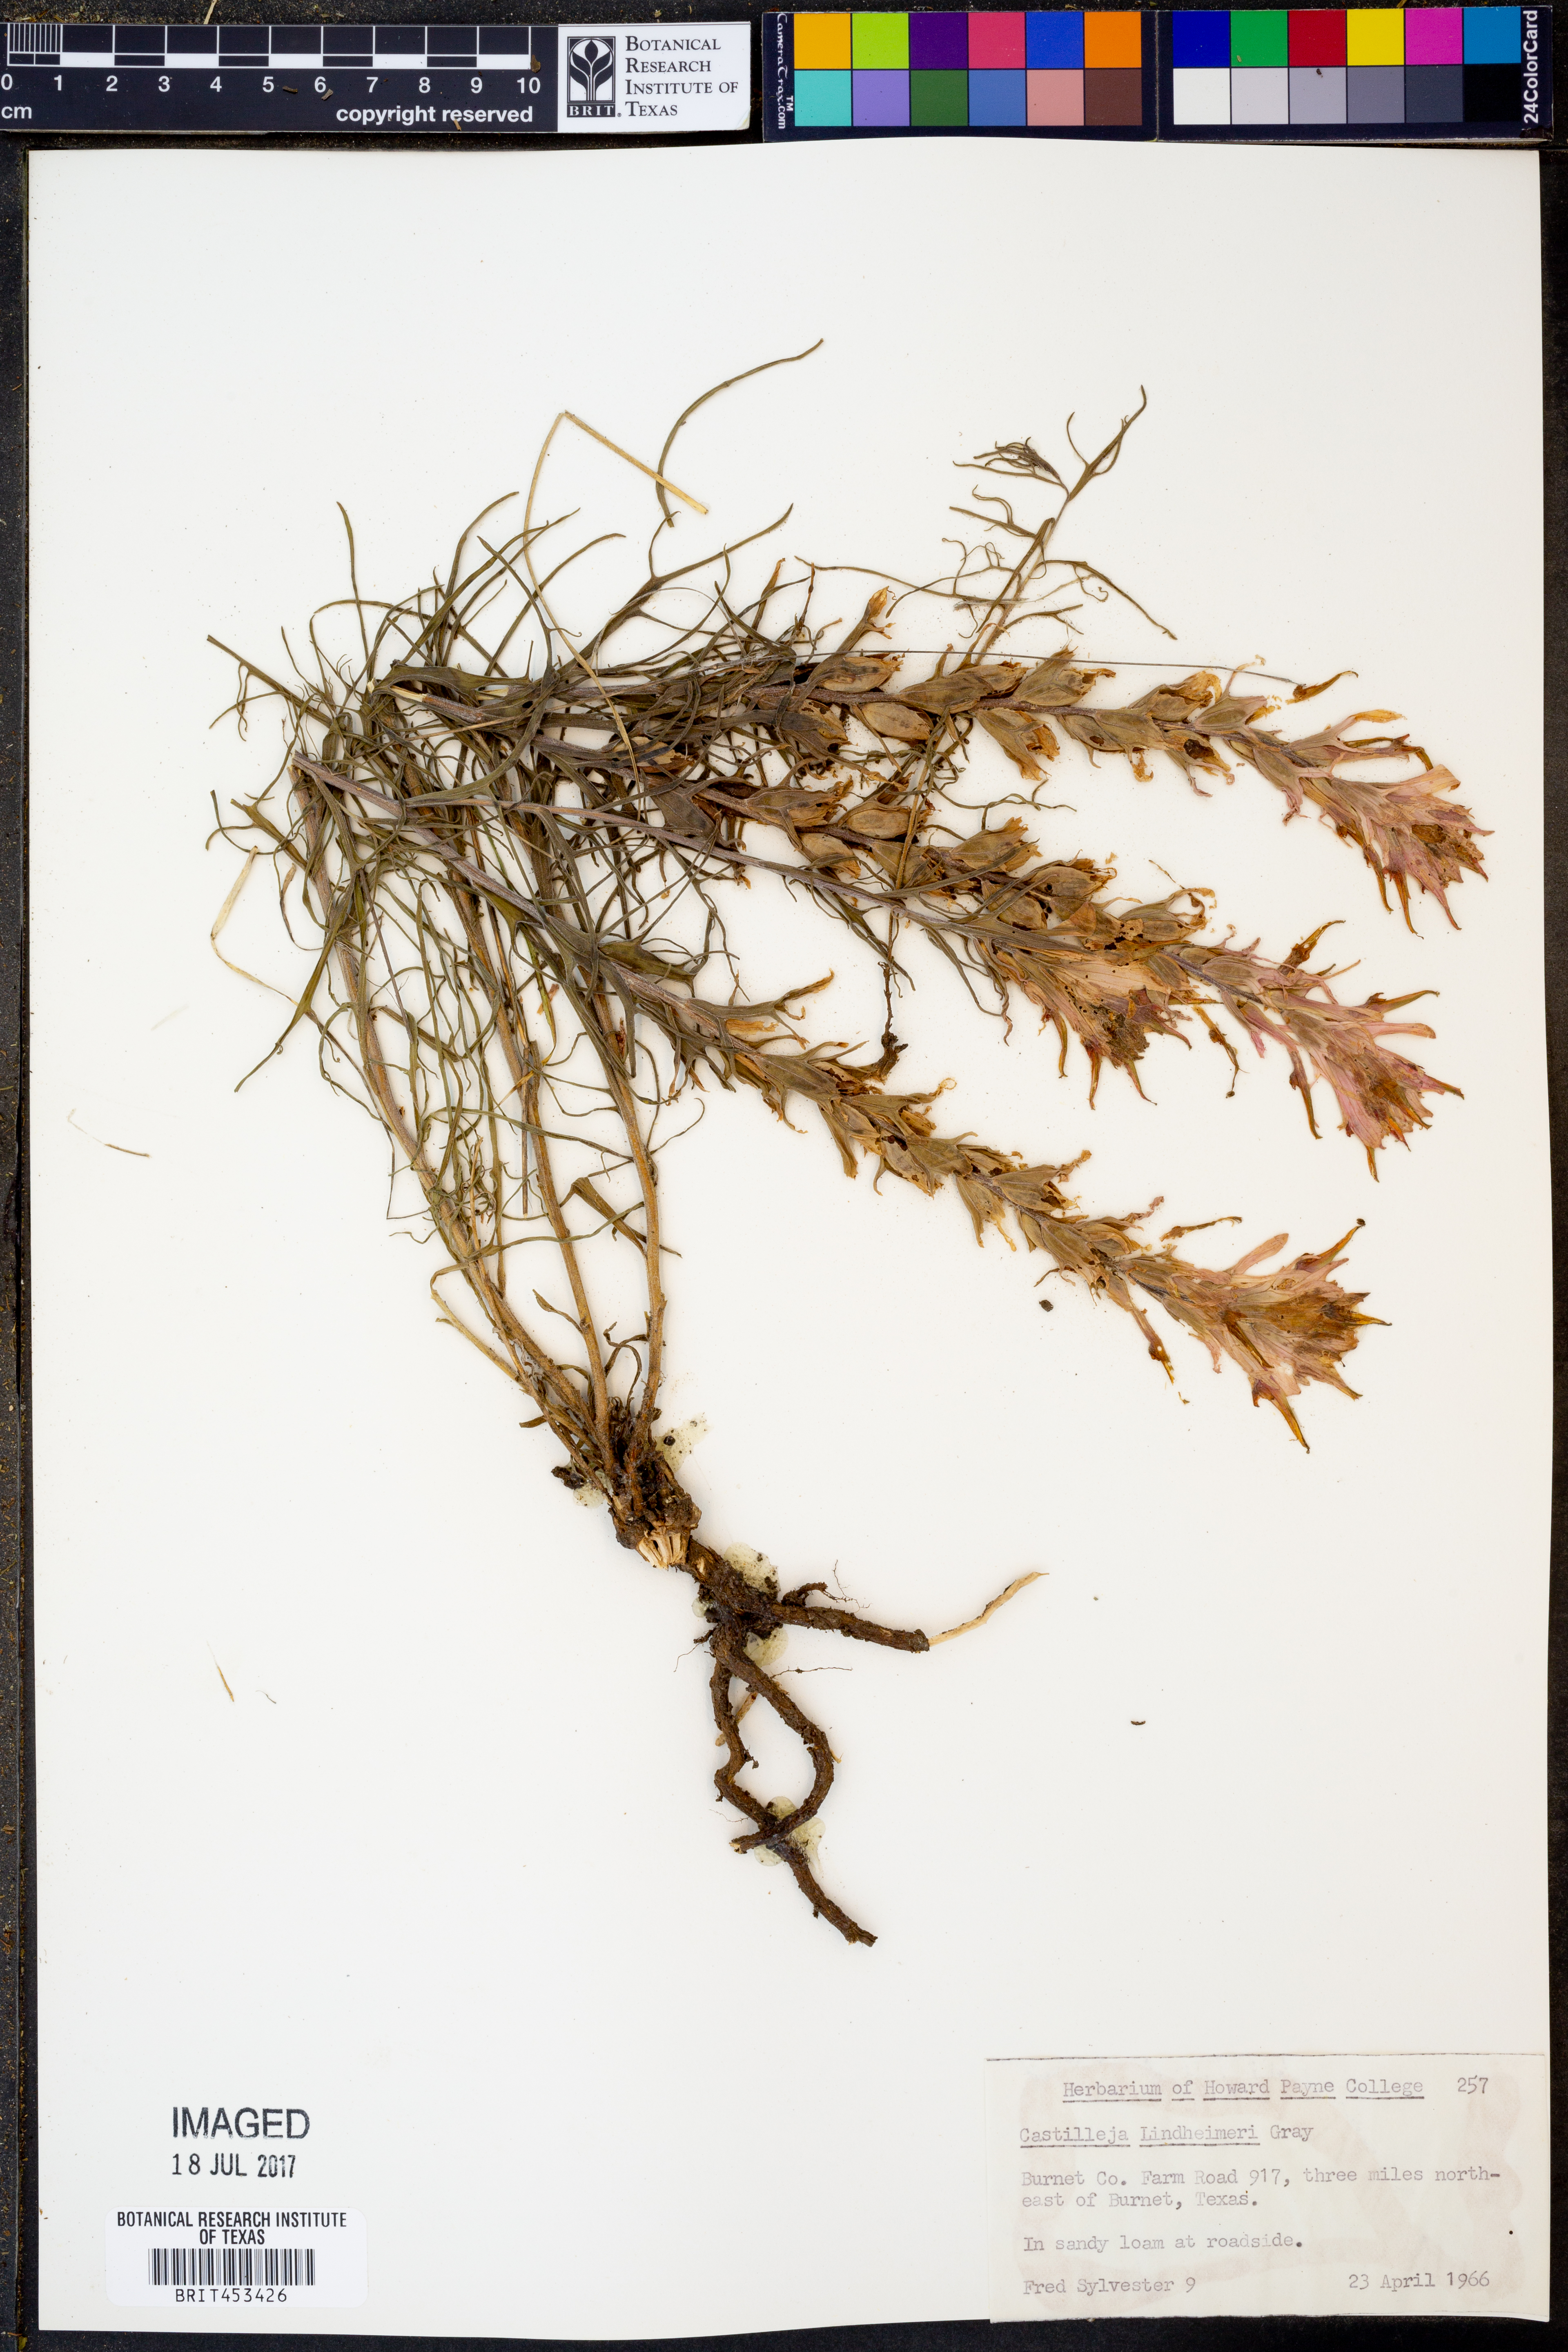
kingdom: Plantae
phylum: Tracheophyta
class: Magnoliopsida
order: Lamiales
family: Orobanchaceae
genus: Castilleja
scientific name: Castilleja lindheimeri
